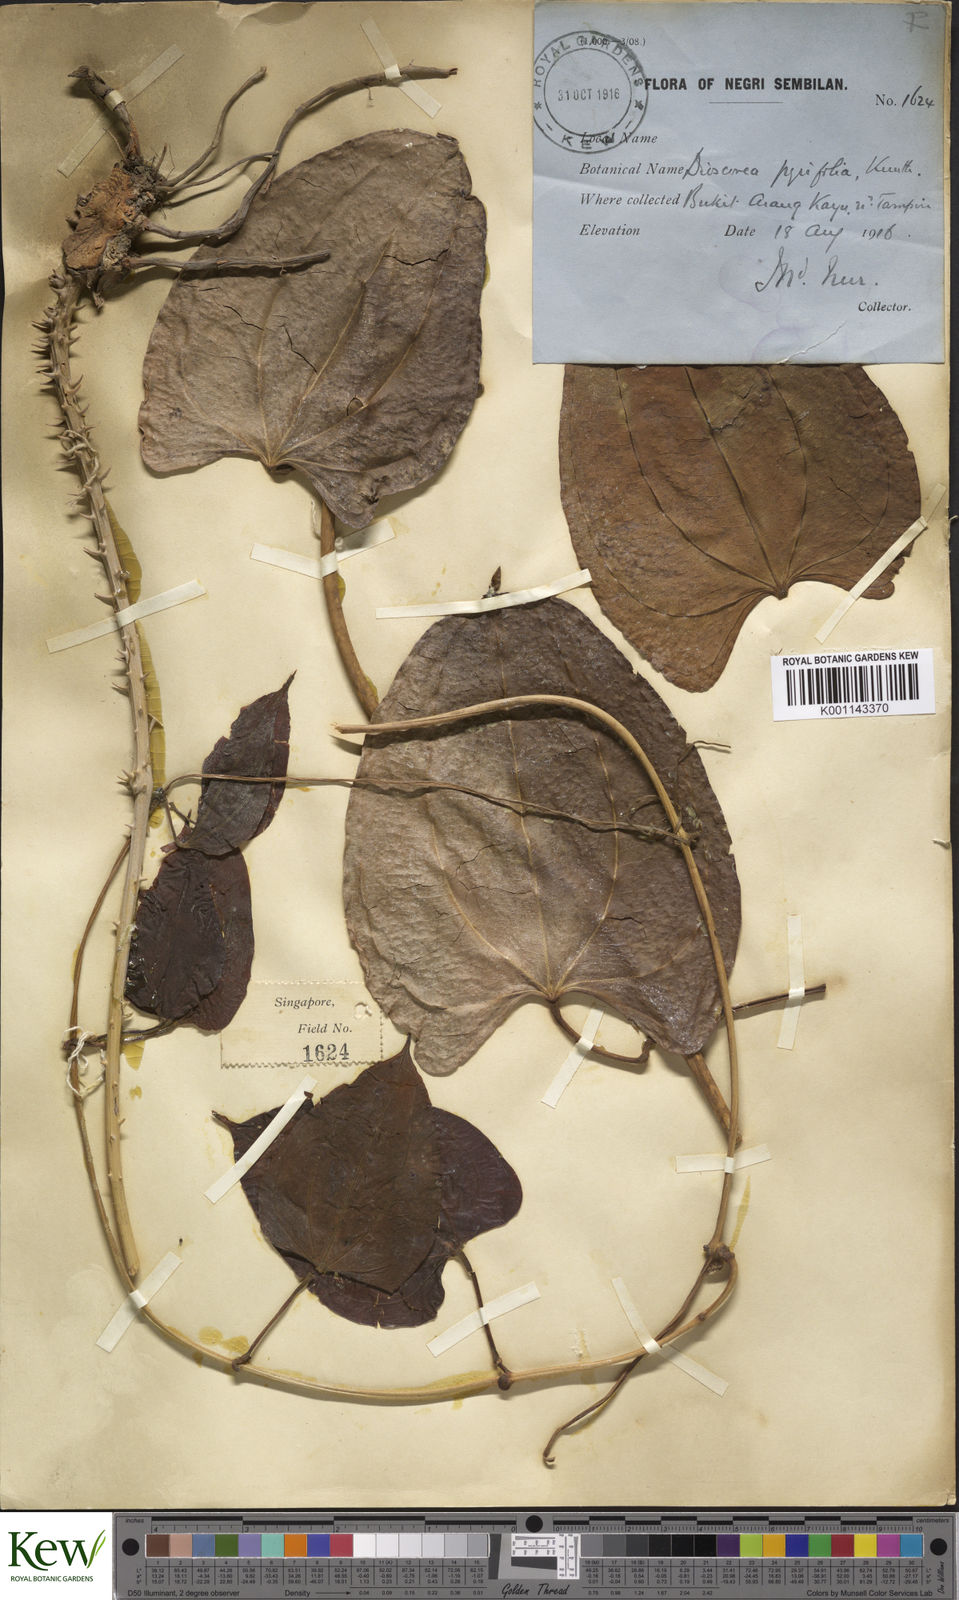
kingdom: Plantae
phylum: Tracheophyta
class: Liliopsida
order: Dioscoreales
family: Dioscoreaceae
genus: Dioscorea
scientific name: Dioscorea pyrifolia
